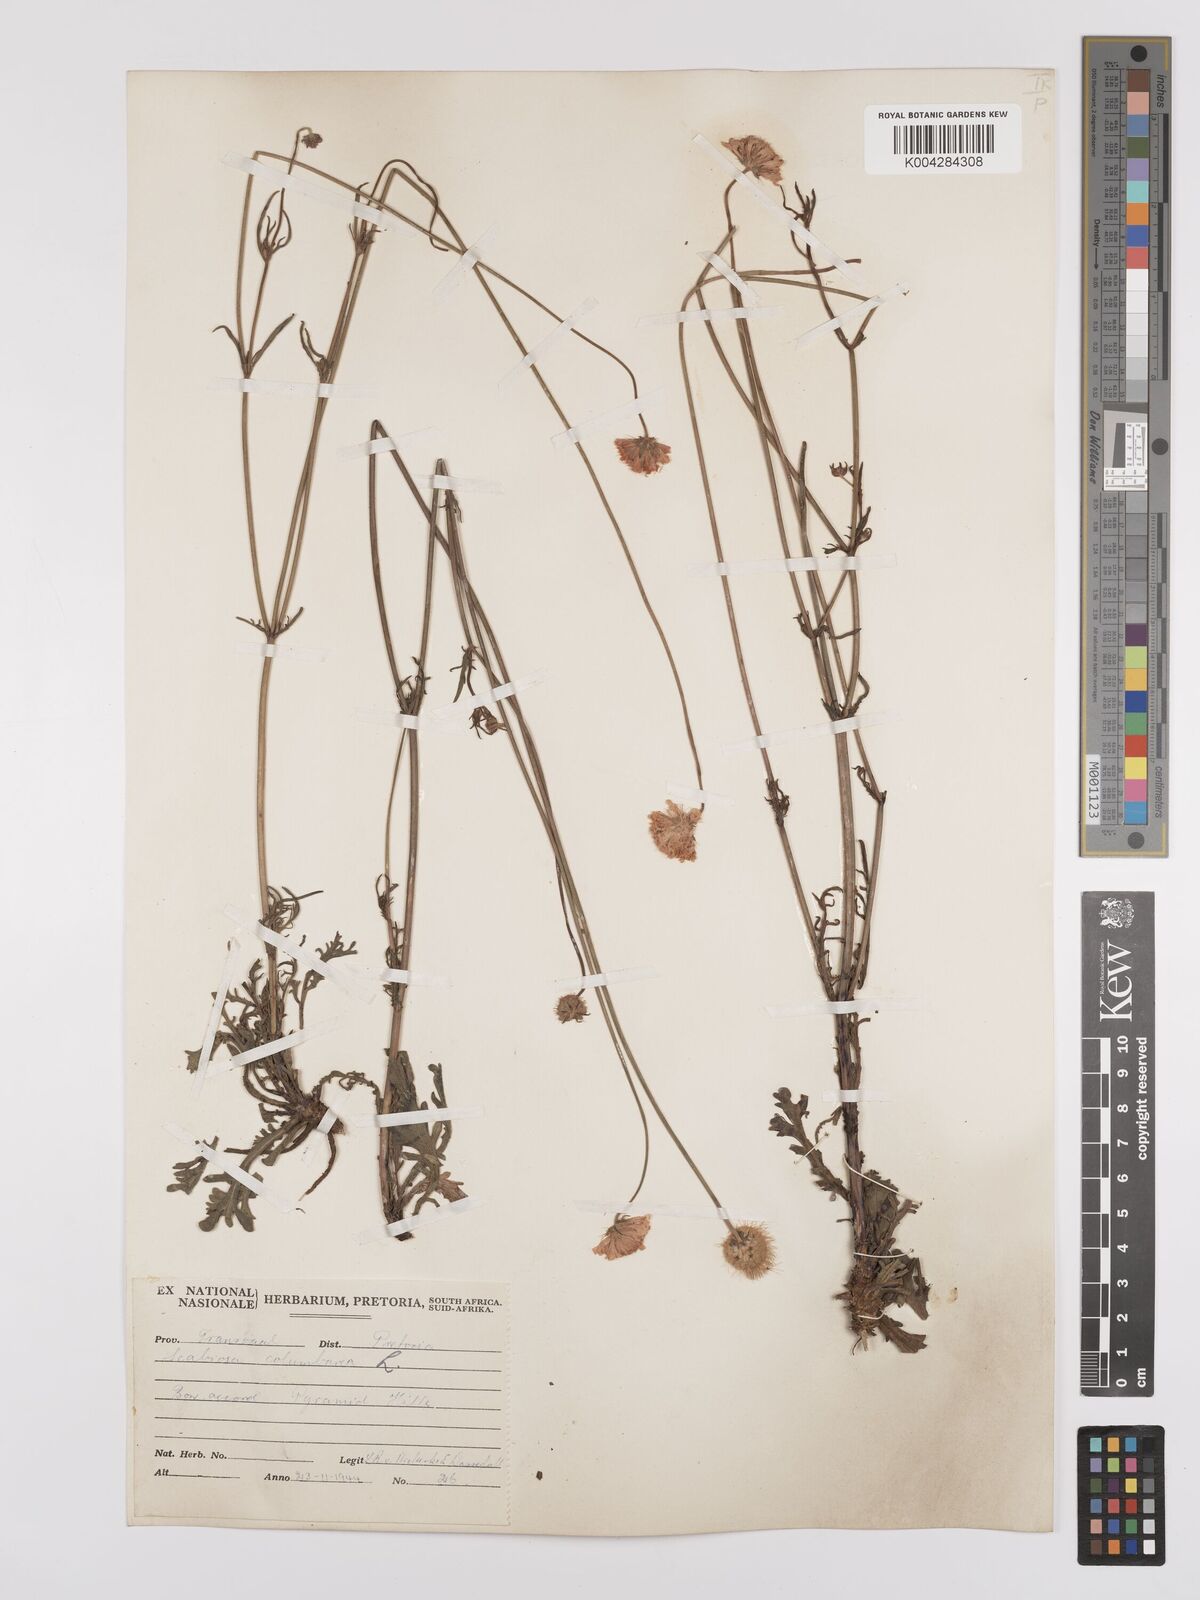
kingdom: Plantae
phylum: Tracheophyta
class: Magnoliopsida
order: Dipsacales
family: Caprifoliaceae
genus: Scabiosa
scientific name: Scabiosa austroafricana
